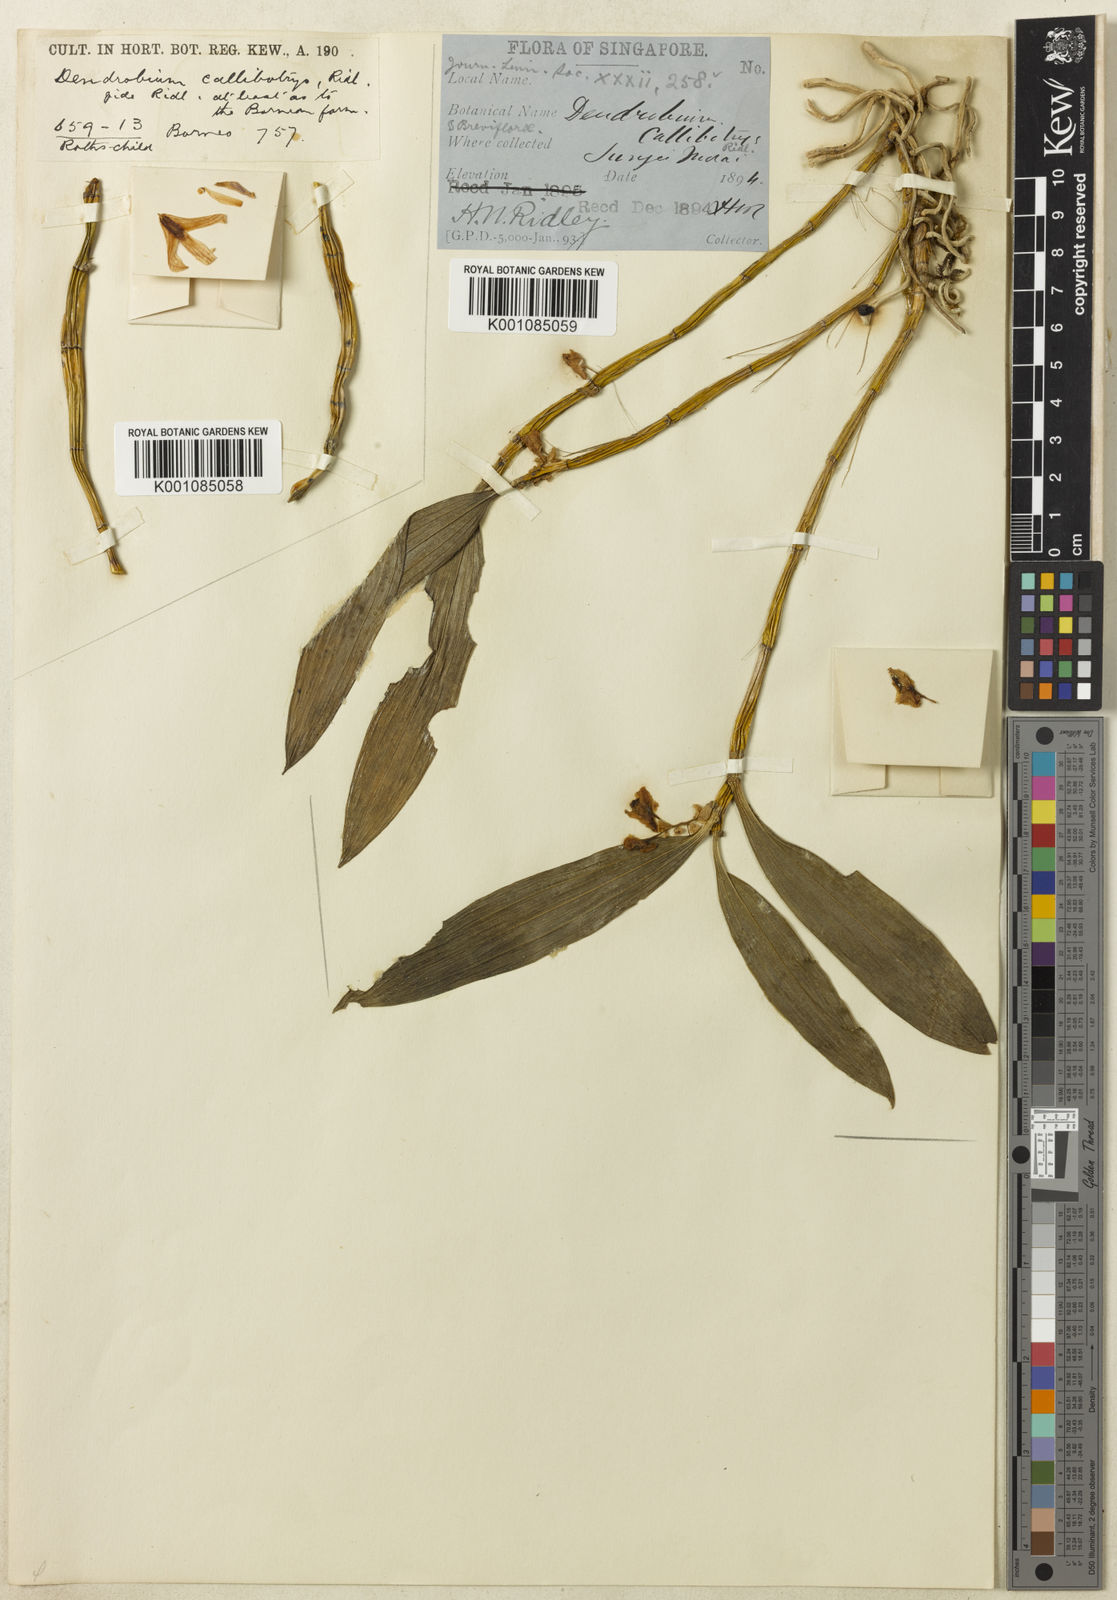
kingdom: Plantae
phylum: Tracheophyta
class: Liliopsida
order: Asparagales
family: Orchidaceae
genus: Dendrobium
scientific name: Dendrobium microglaphys
